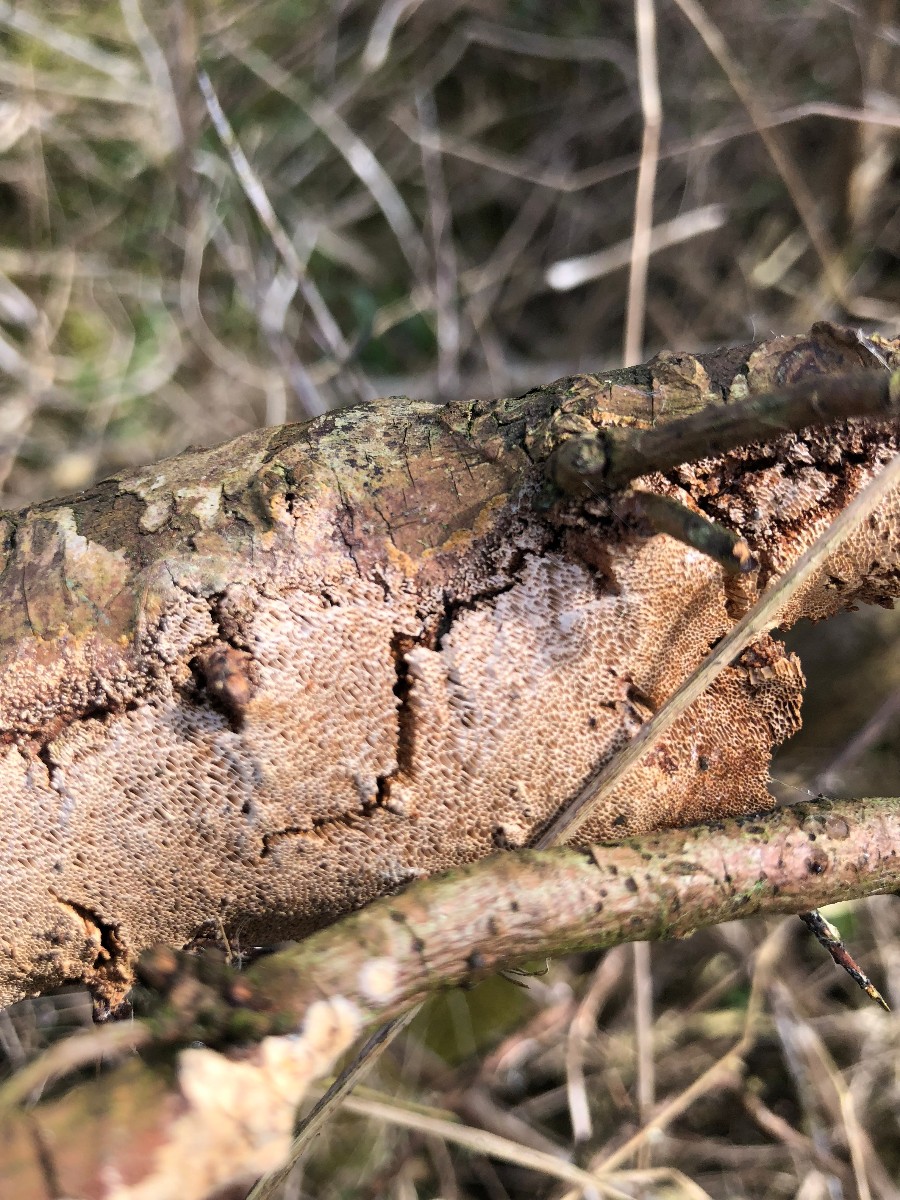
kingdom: Fungi
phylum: Basidiomycota
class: Agaricomycetes
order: Hymenochaetales
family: Hymenochaetaceae
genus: Fuscoporia
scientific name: Fuscoporia contigua
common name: grov ildporesvamp
